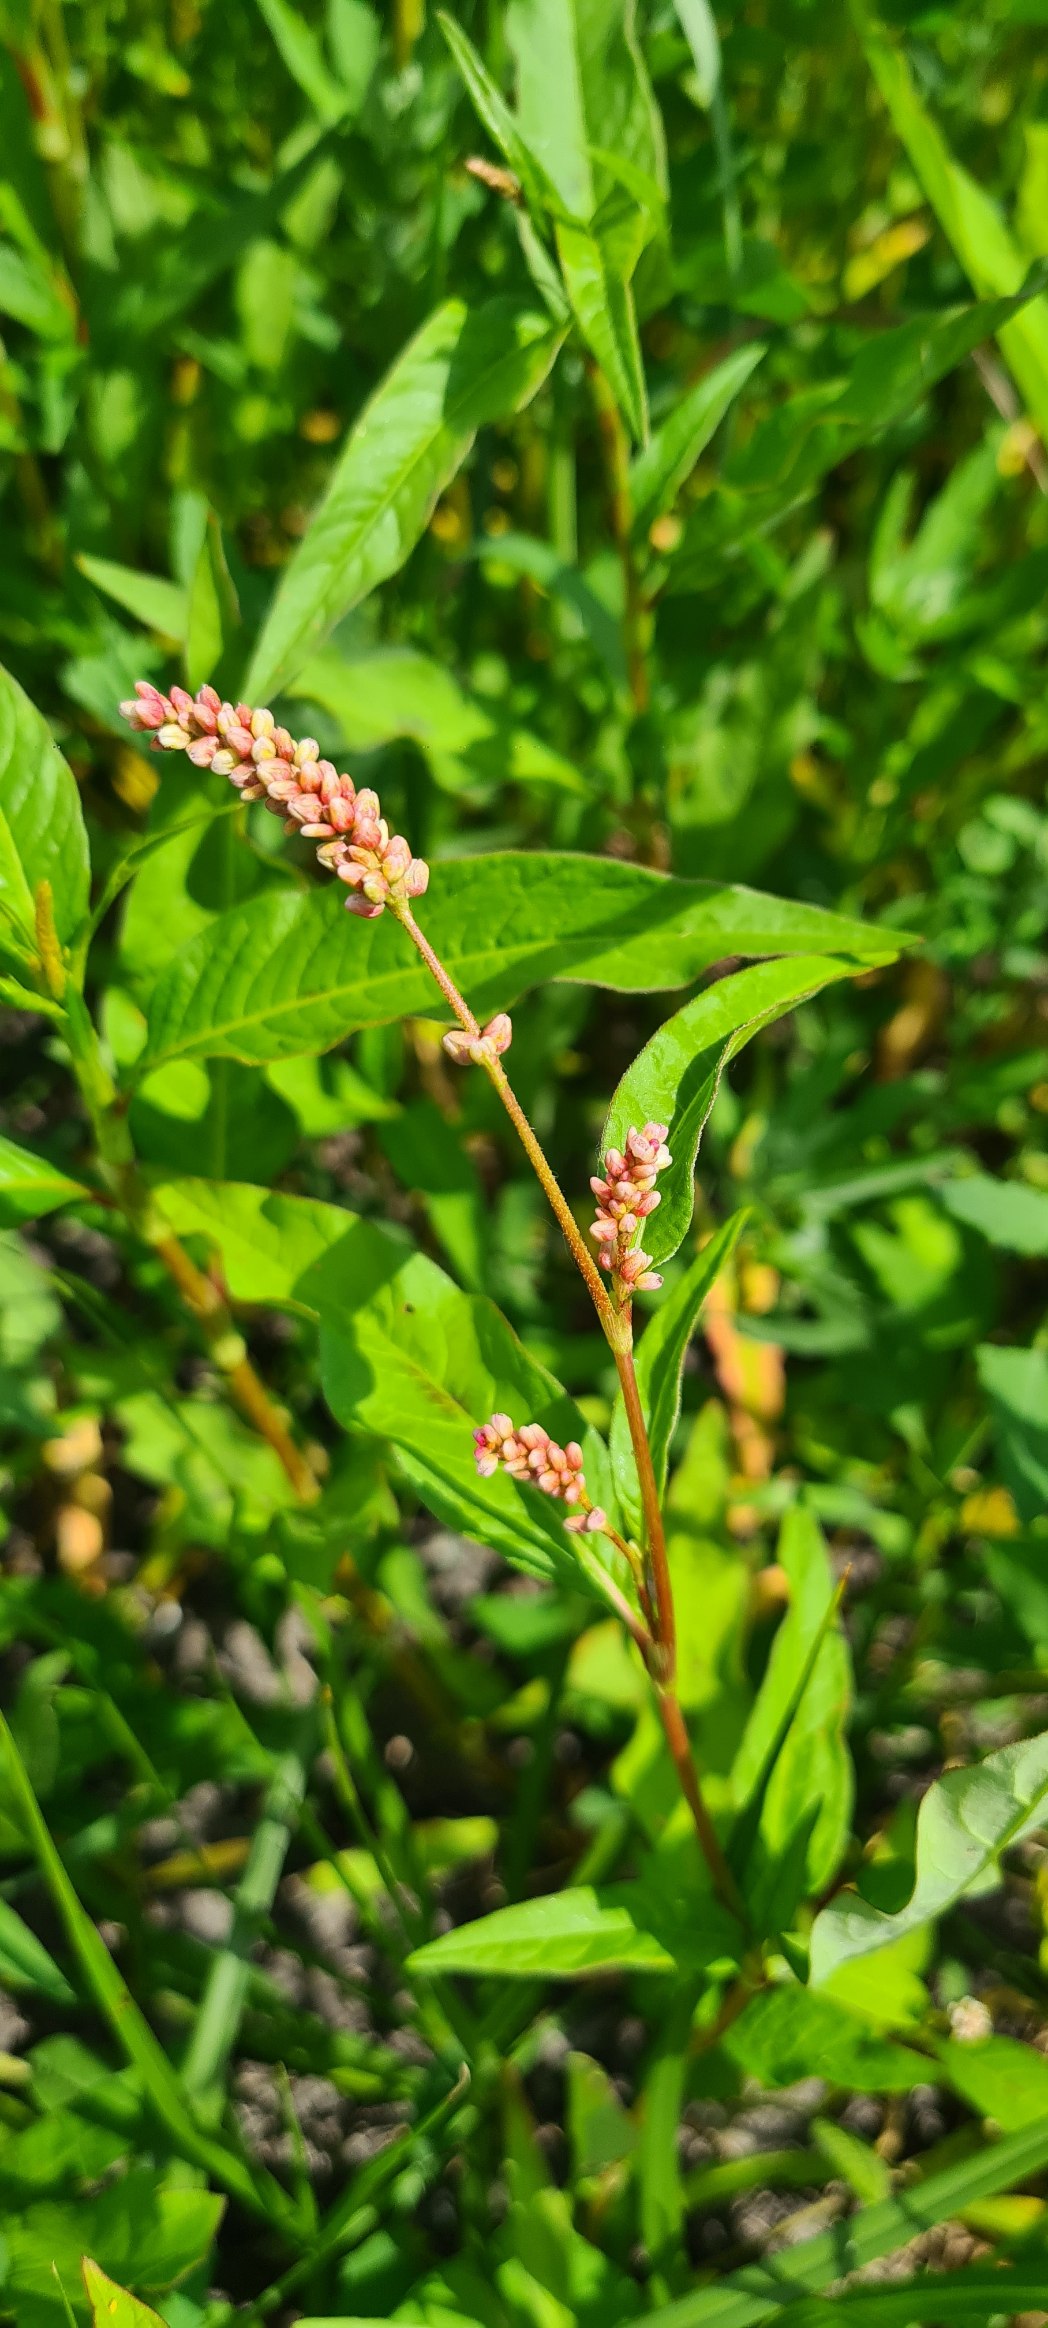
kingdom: Plantae
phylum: Tracheophyta
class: Magnoliopsida
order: Caryophyllales
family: Polygonaceae
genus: Persicaria
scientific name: Persicaria lapathifolia
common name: Knudet pileurt (underart)
